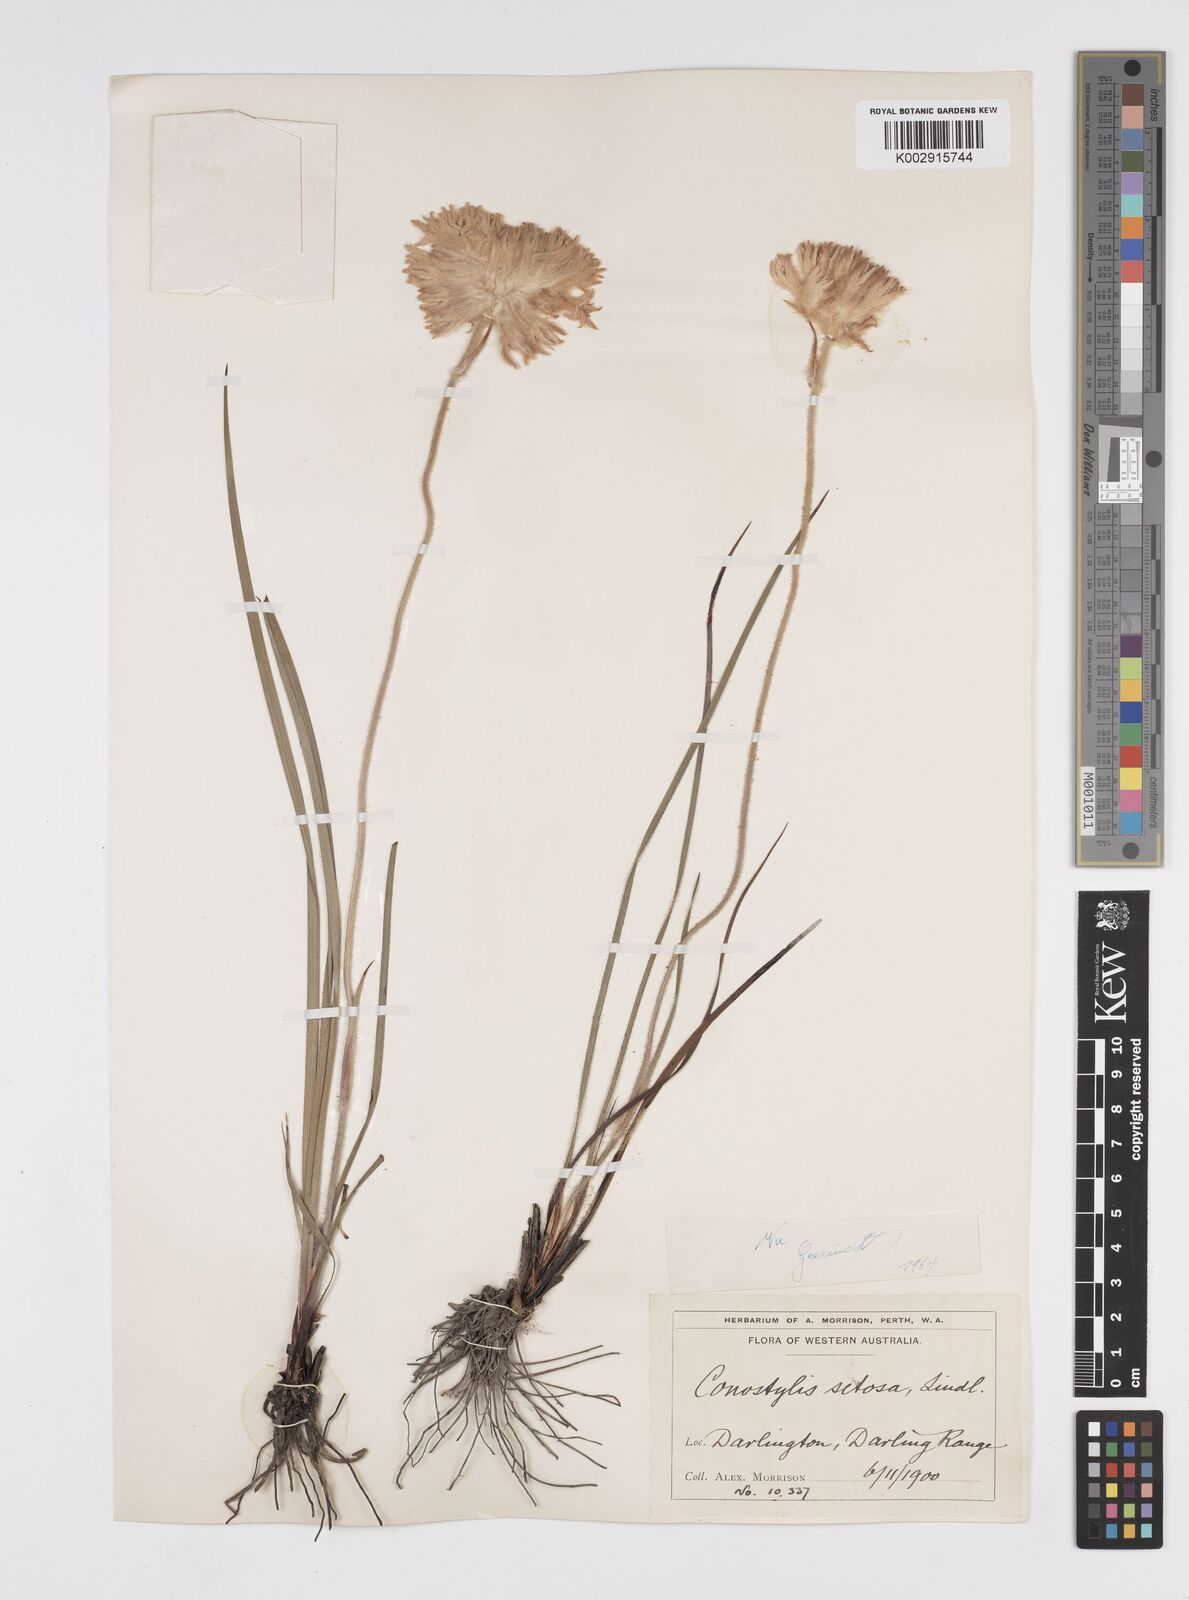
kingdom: Plantae
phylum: Tracheophyta
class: Liliopsida
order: Commelinales
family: Haemodoraceae
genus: Conostylis
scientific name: Conostylis setosa
